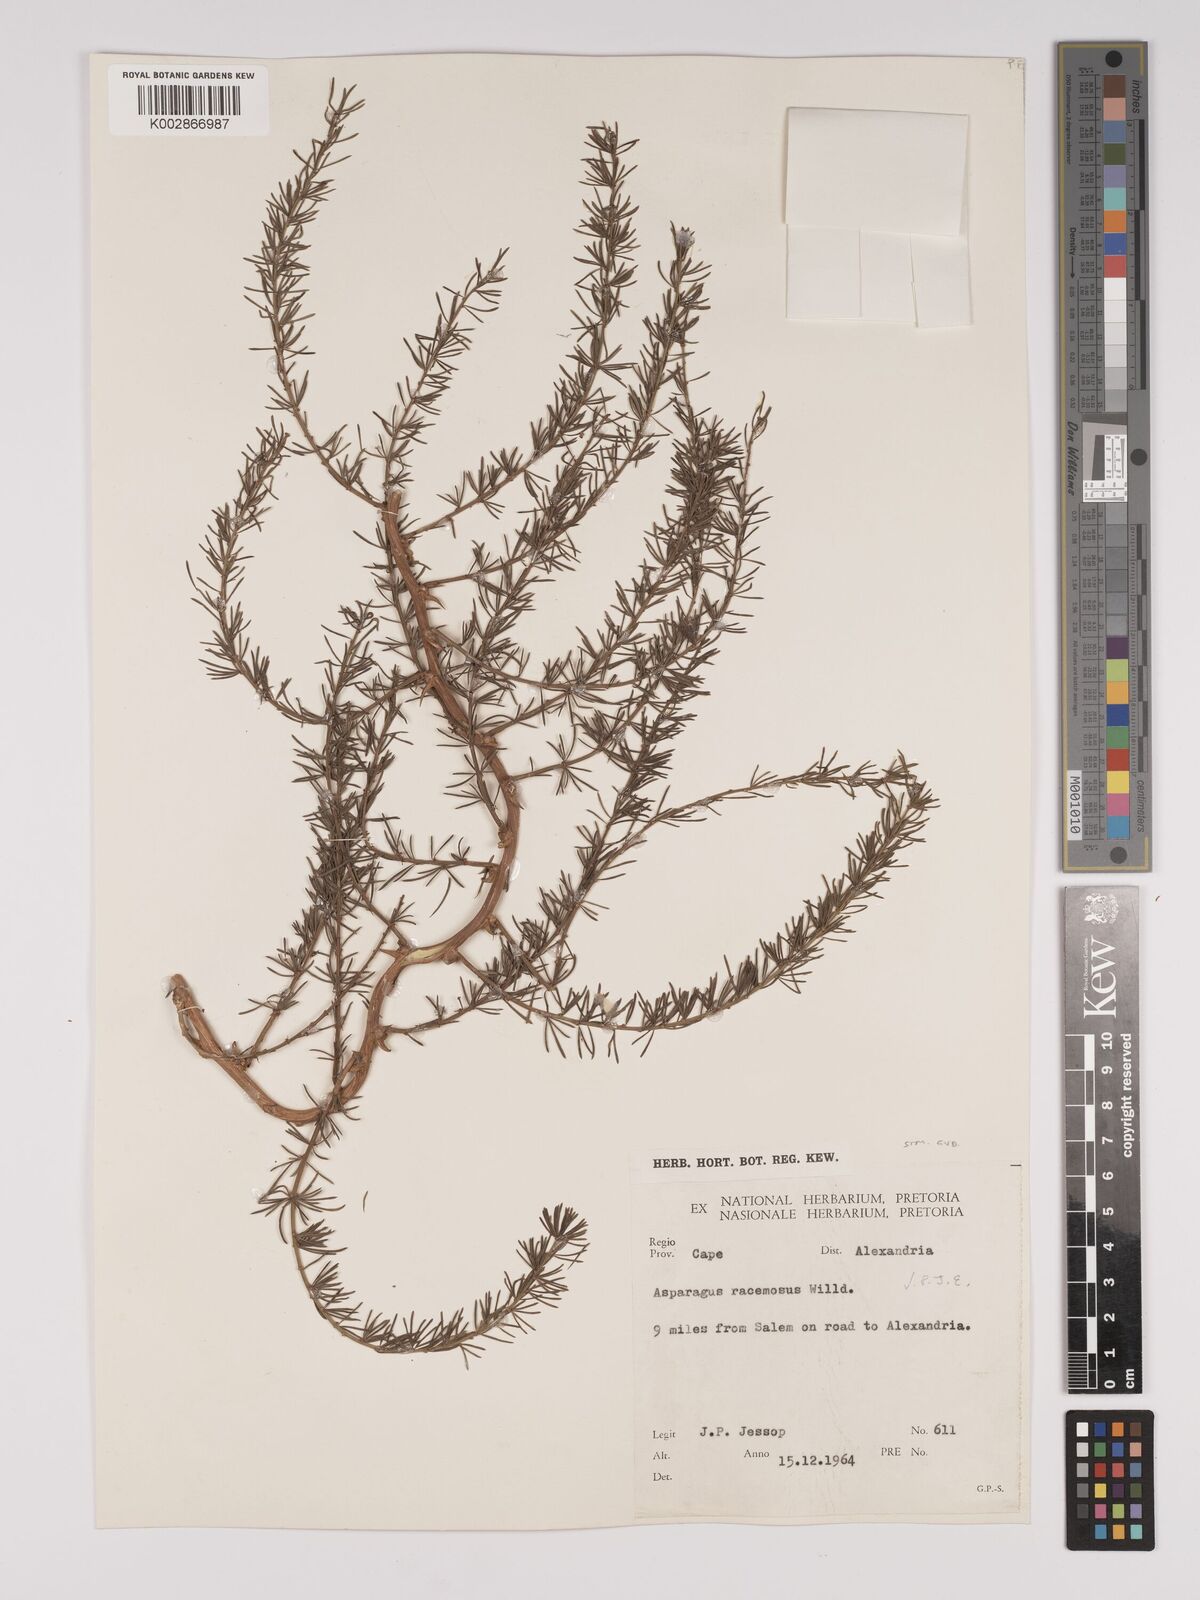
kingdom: Plantae
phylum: Tracheophyta
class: Liliopsida
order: Asparagales
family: Asparagaceae
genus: Asparagus
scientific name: Asparagus racemosus
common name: Asparagus-fern
